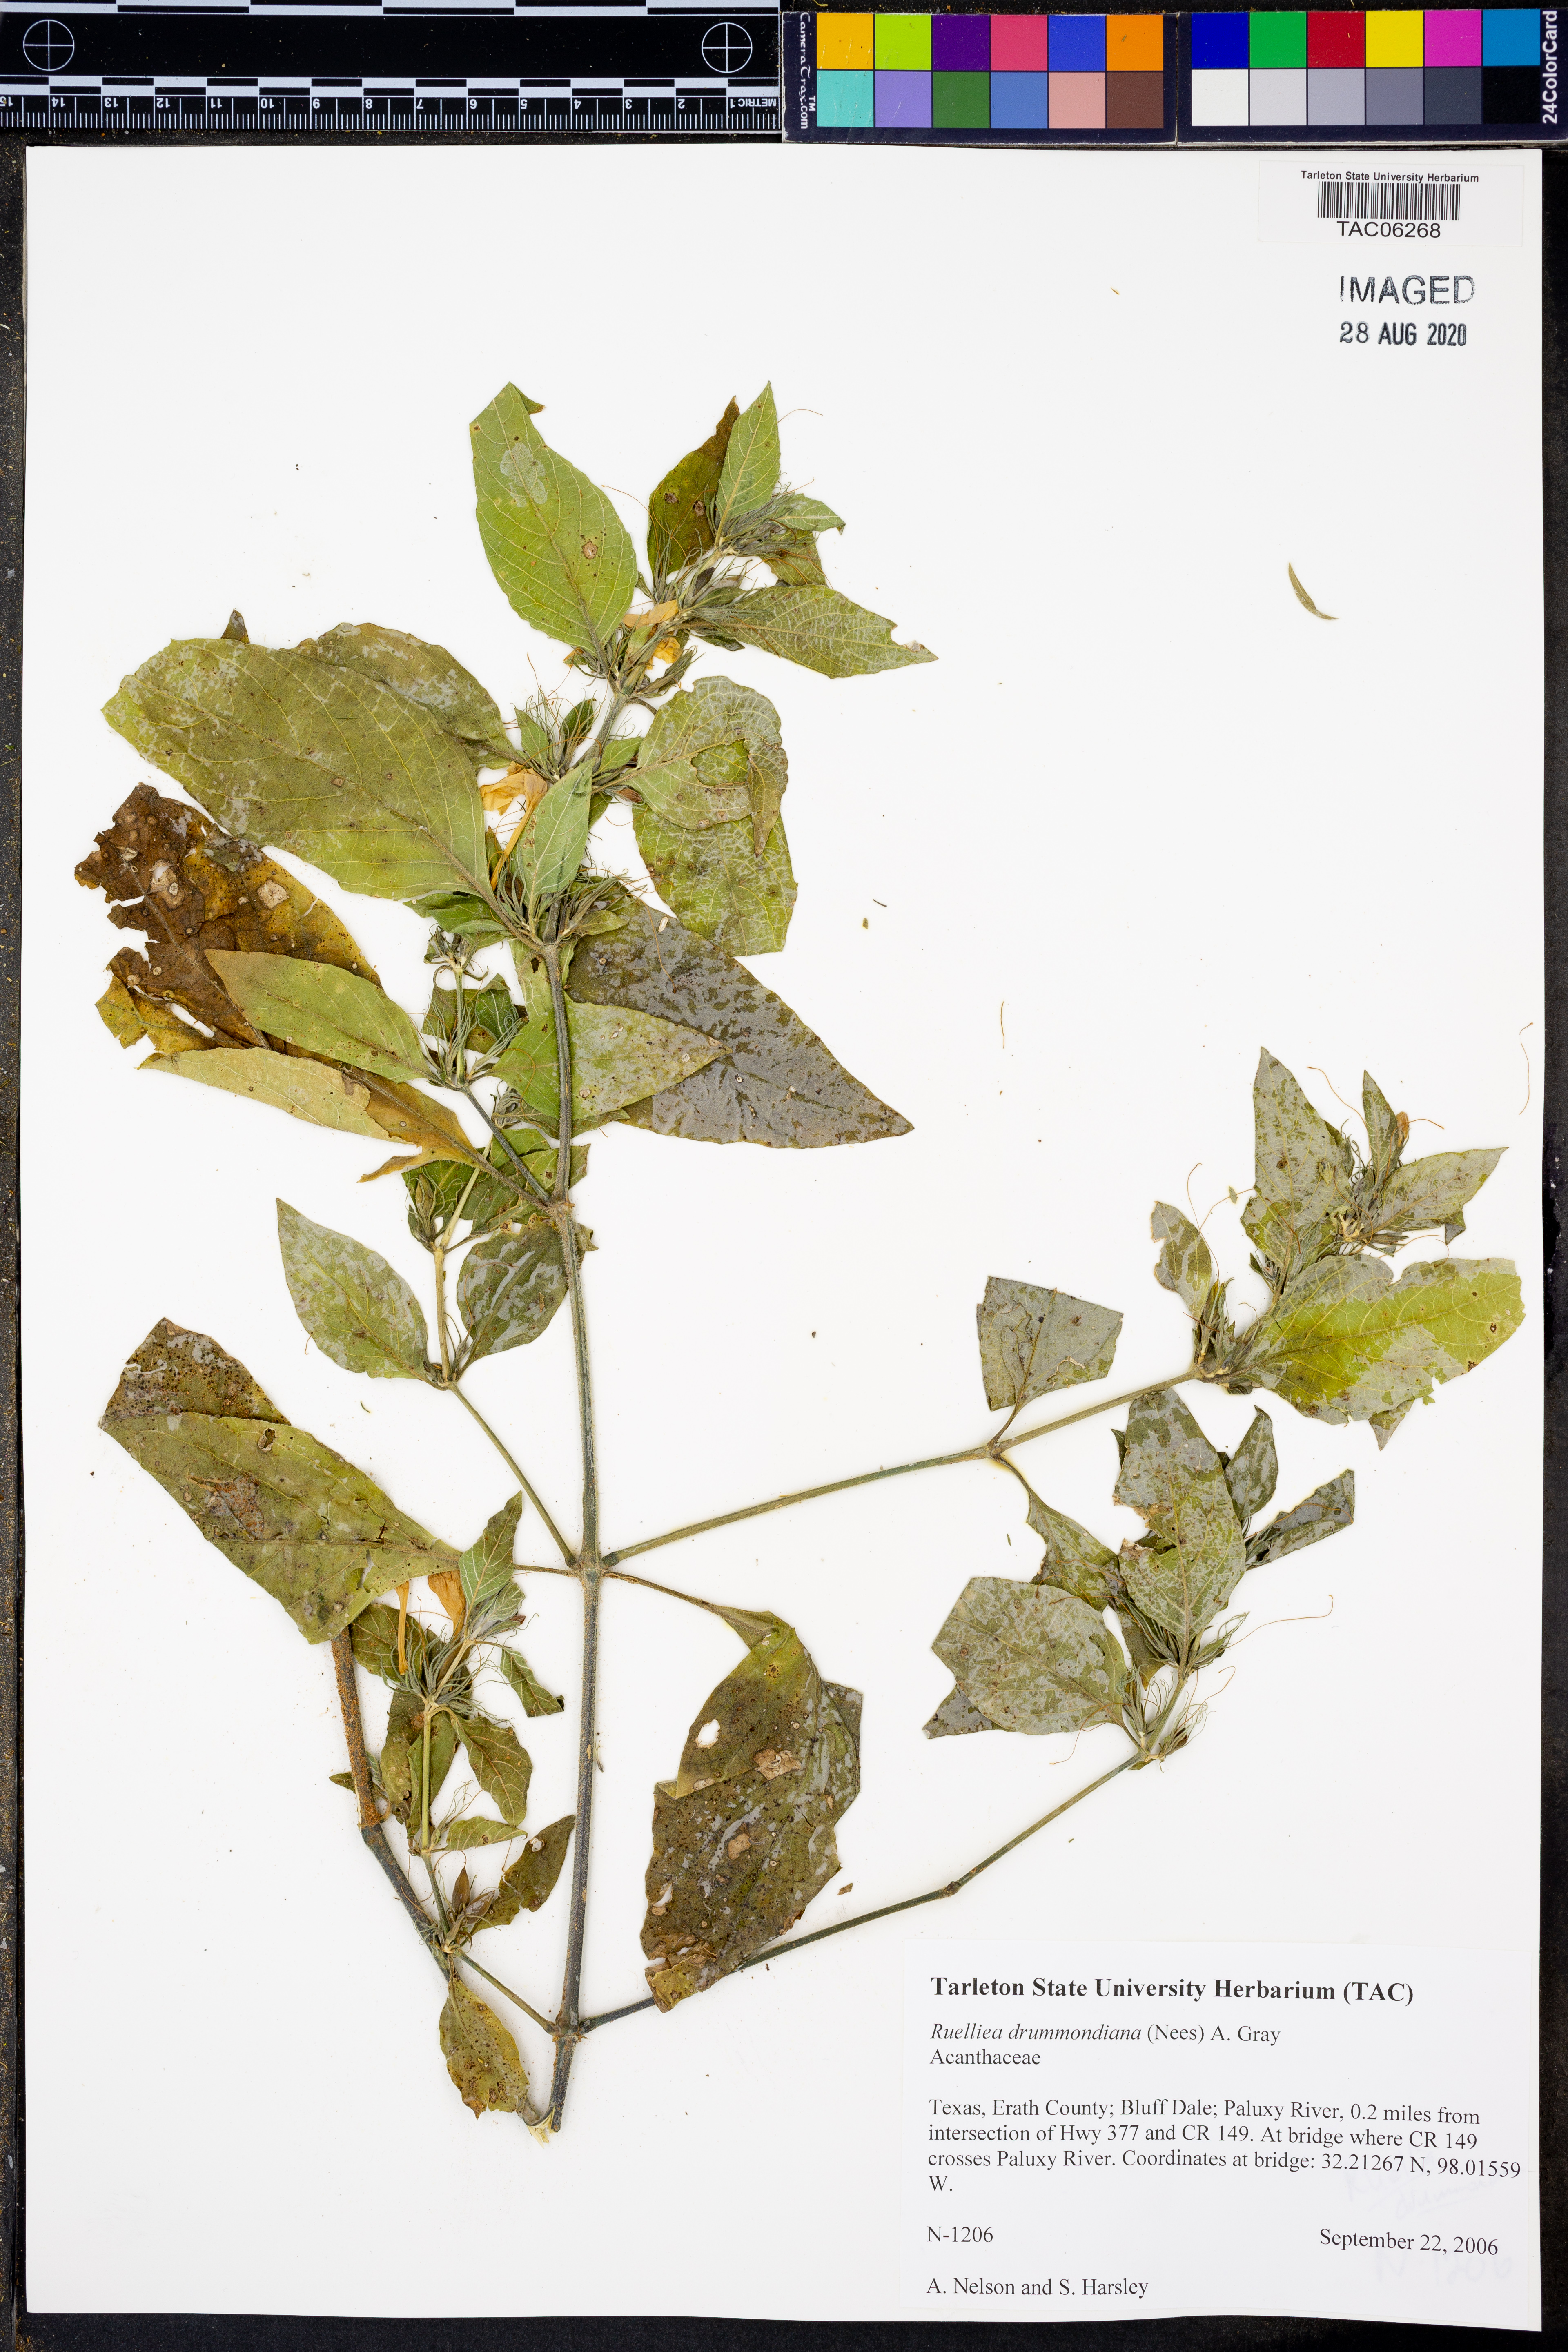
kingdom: Plantae
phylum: Tracheophyta
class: Magnoliopsida
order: Lamiales
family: Acanthaceae
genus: Ruellia
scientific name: Ruellia drummondiana
